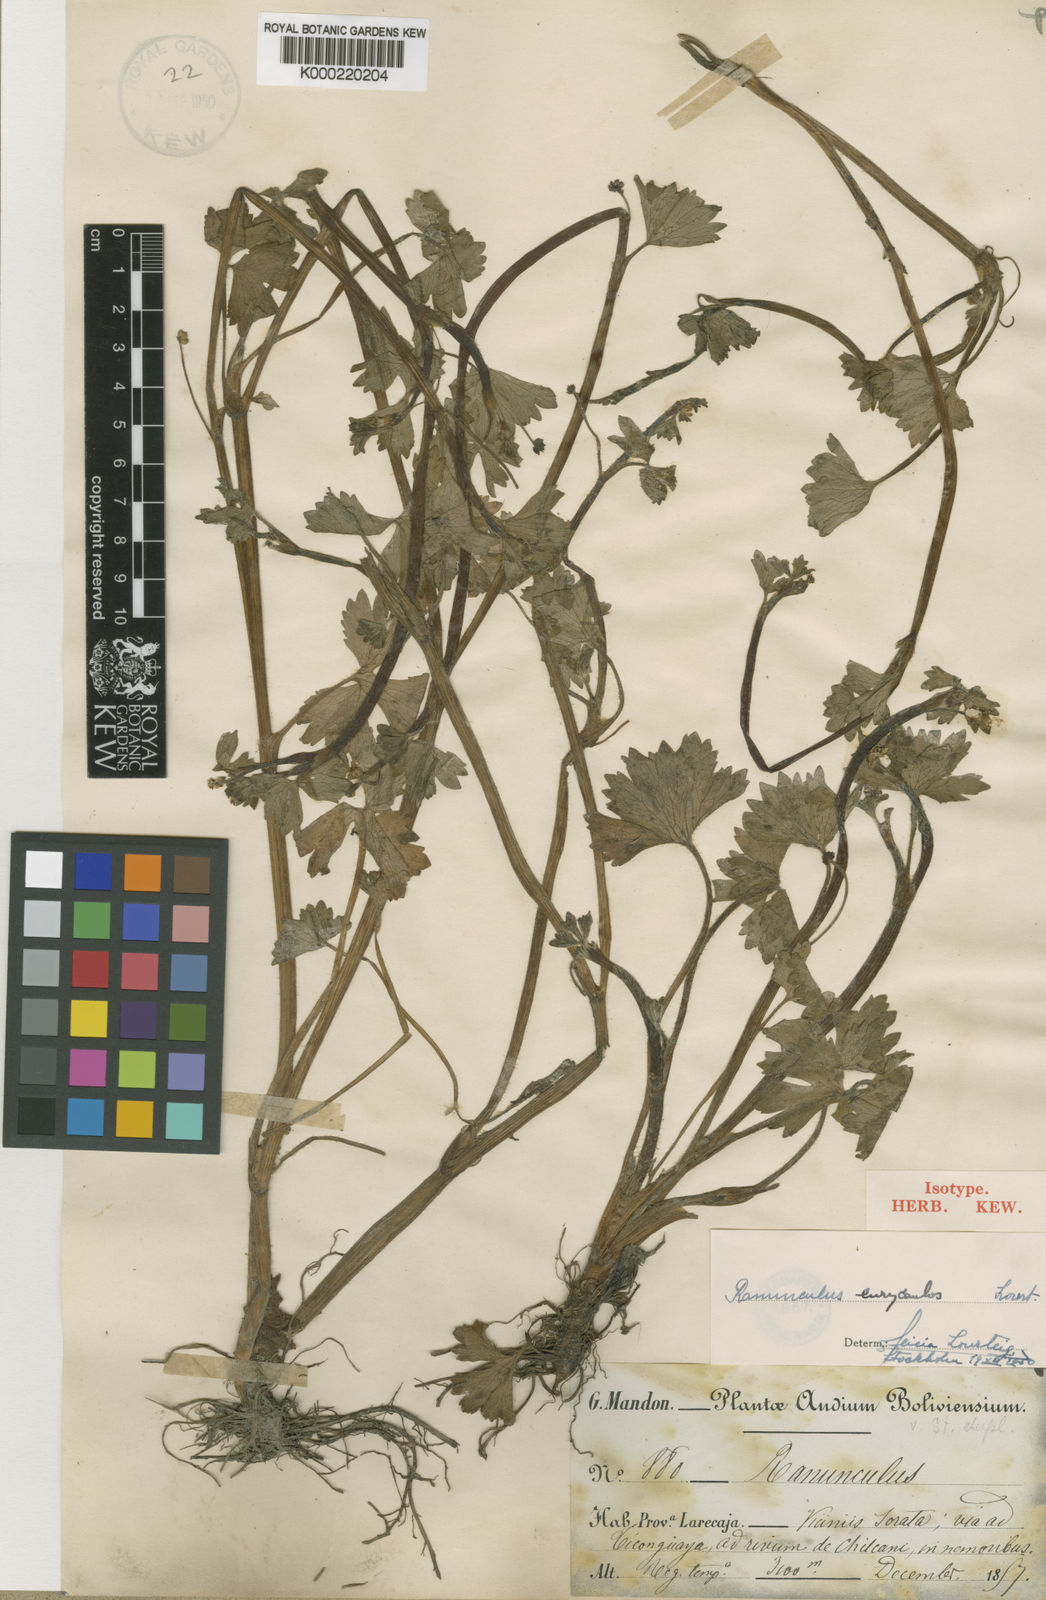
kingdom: Plantae
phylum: Tracheophyta
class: Magnoliopsida
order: Ranunculales
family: Ranunculaceae
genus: Ranunculus
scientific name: Ranunculus eurycaulos
